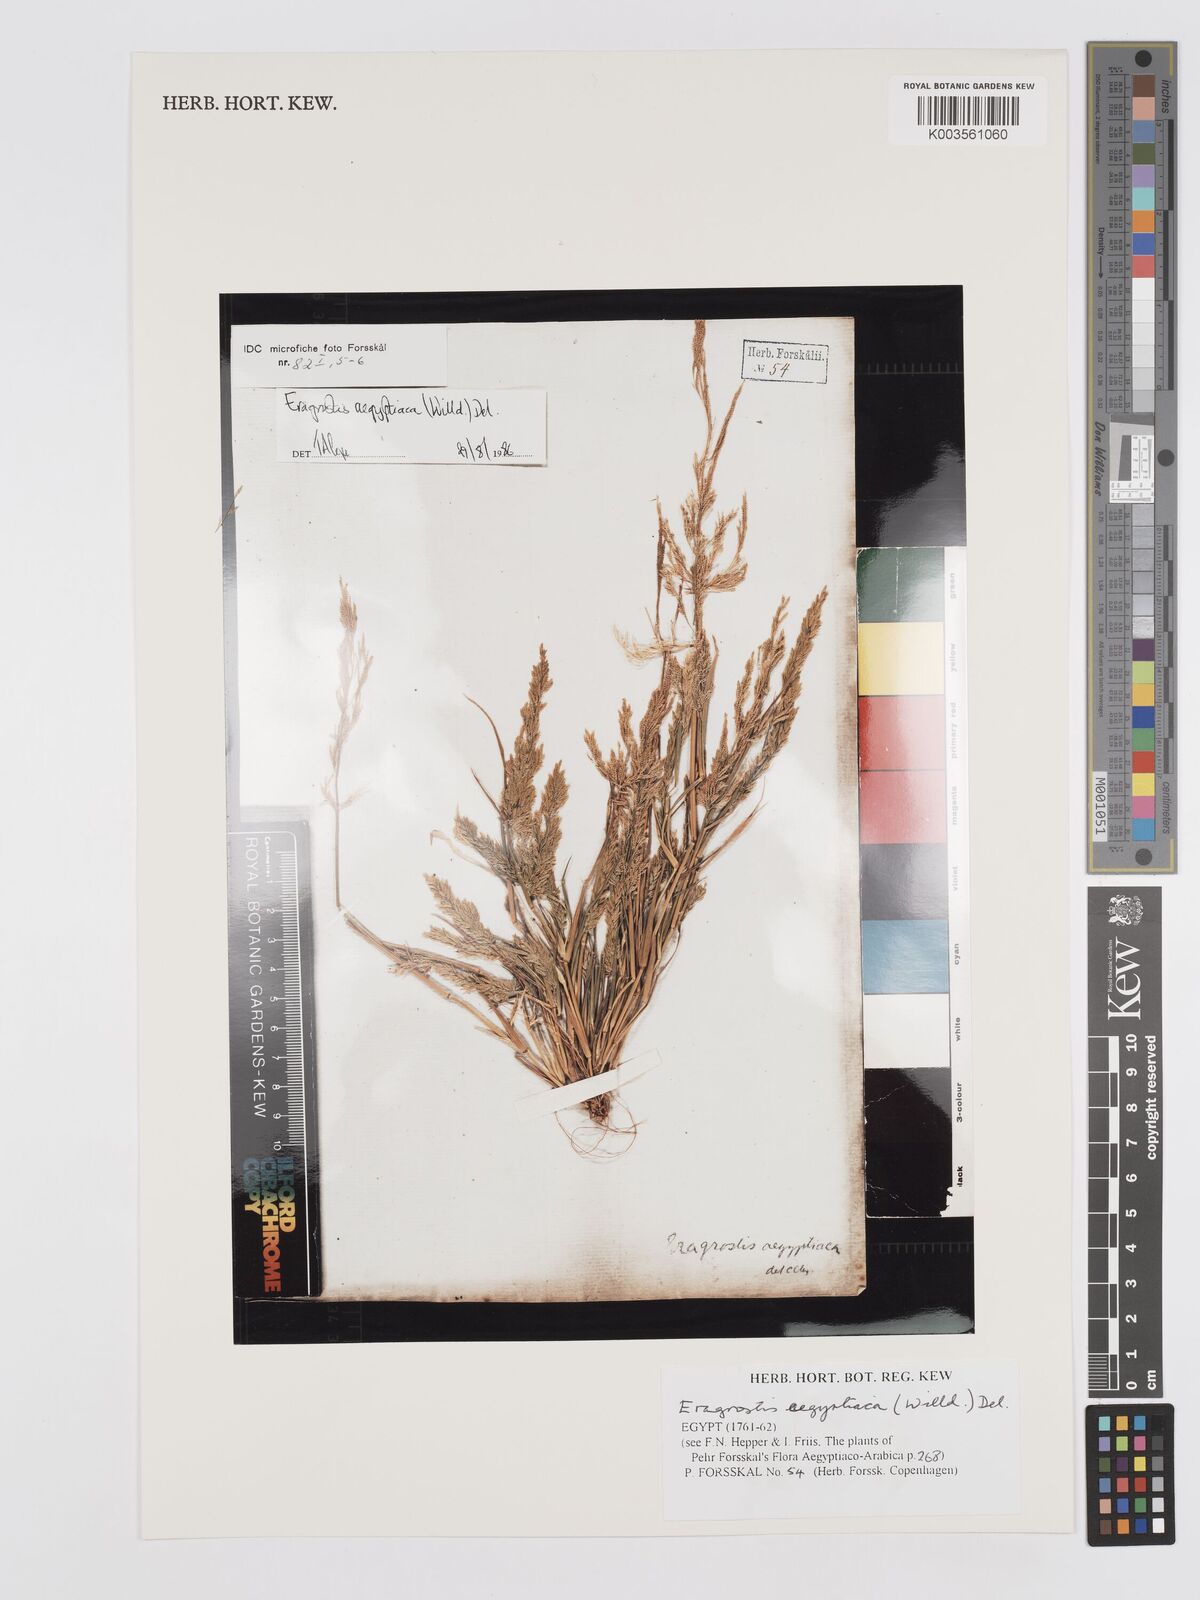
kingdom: Plantae
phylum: Tracheophyta
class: Liliopsida
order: Poales
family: Poaceae
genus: Eragrostis
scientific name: Eragrostis aegyptiaca
